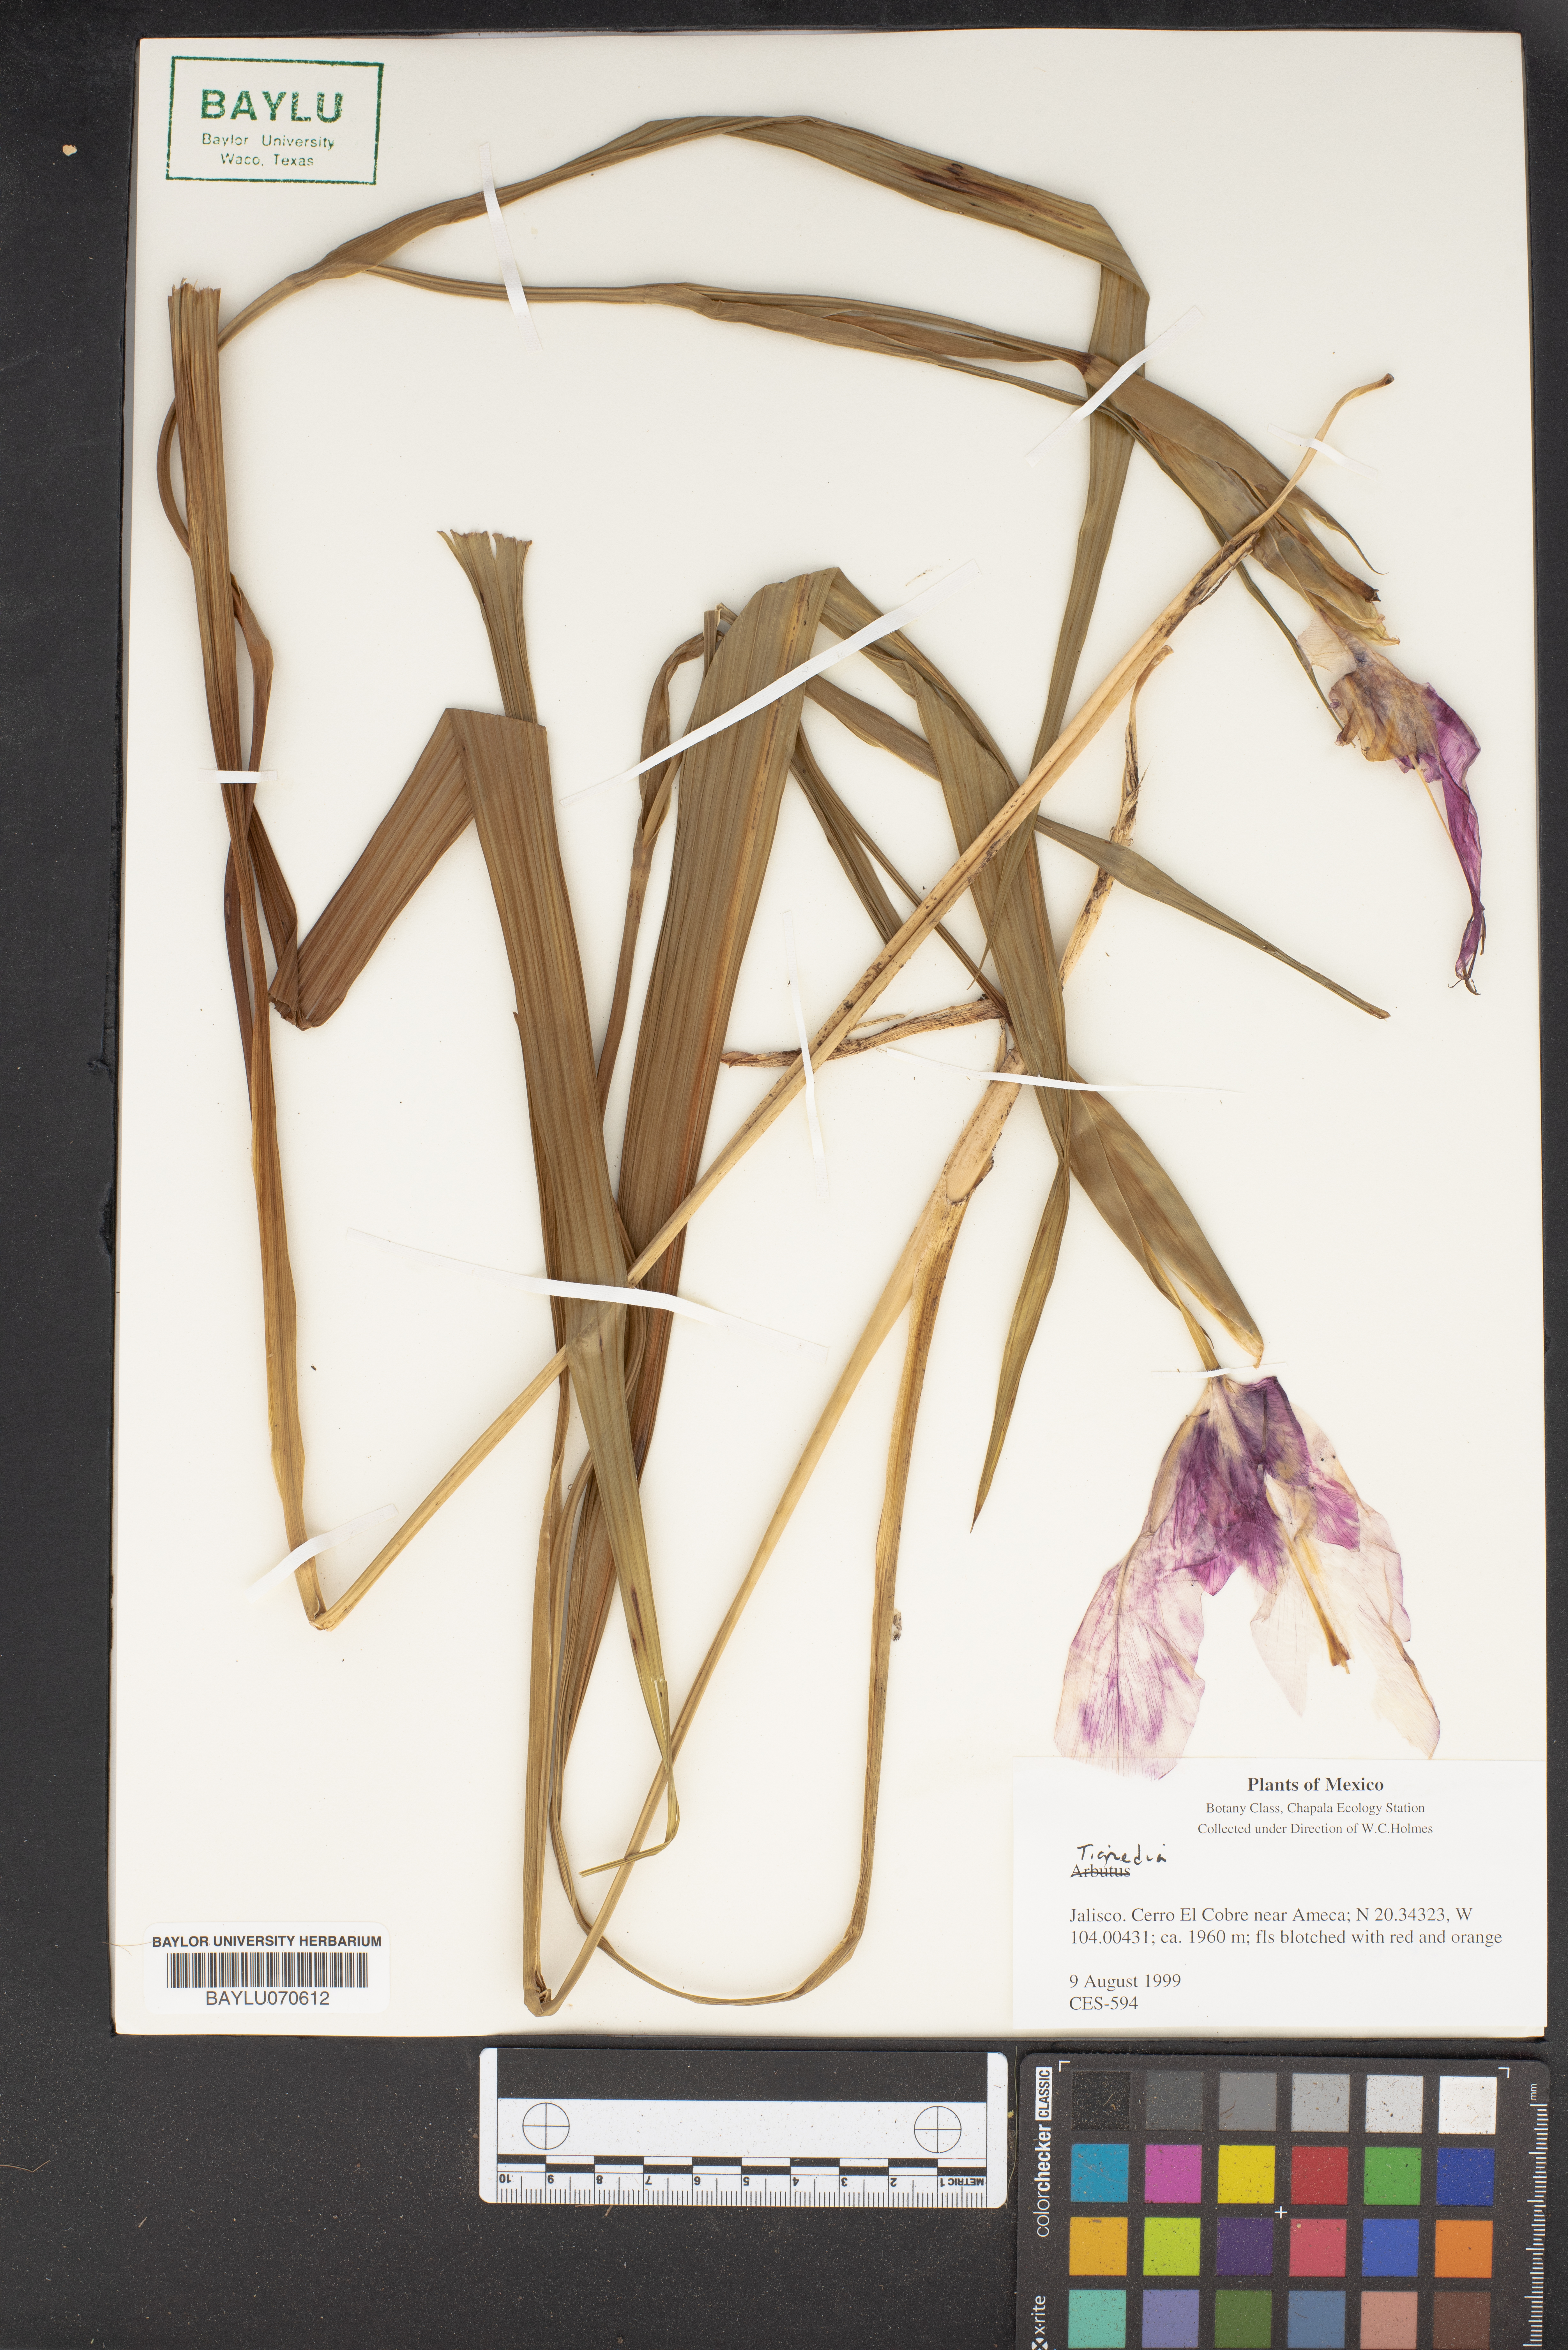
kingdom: Plantae
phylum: Tracheophyta
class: Liliopsida
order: Asparagales
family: Iridaceae
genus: Tigridia
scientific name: Tigridia
